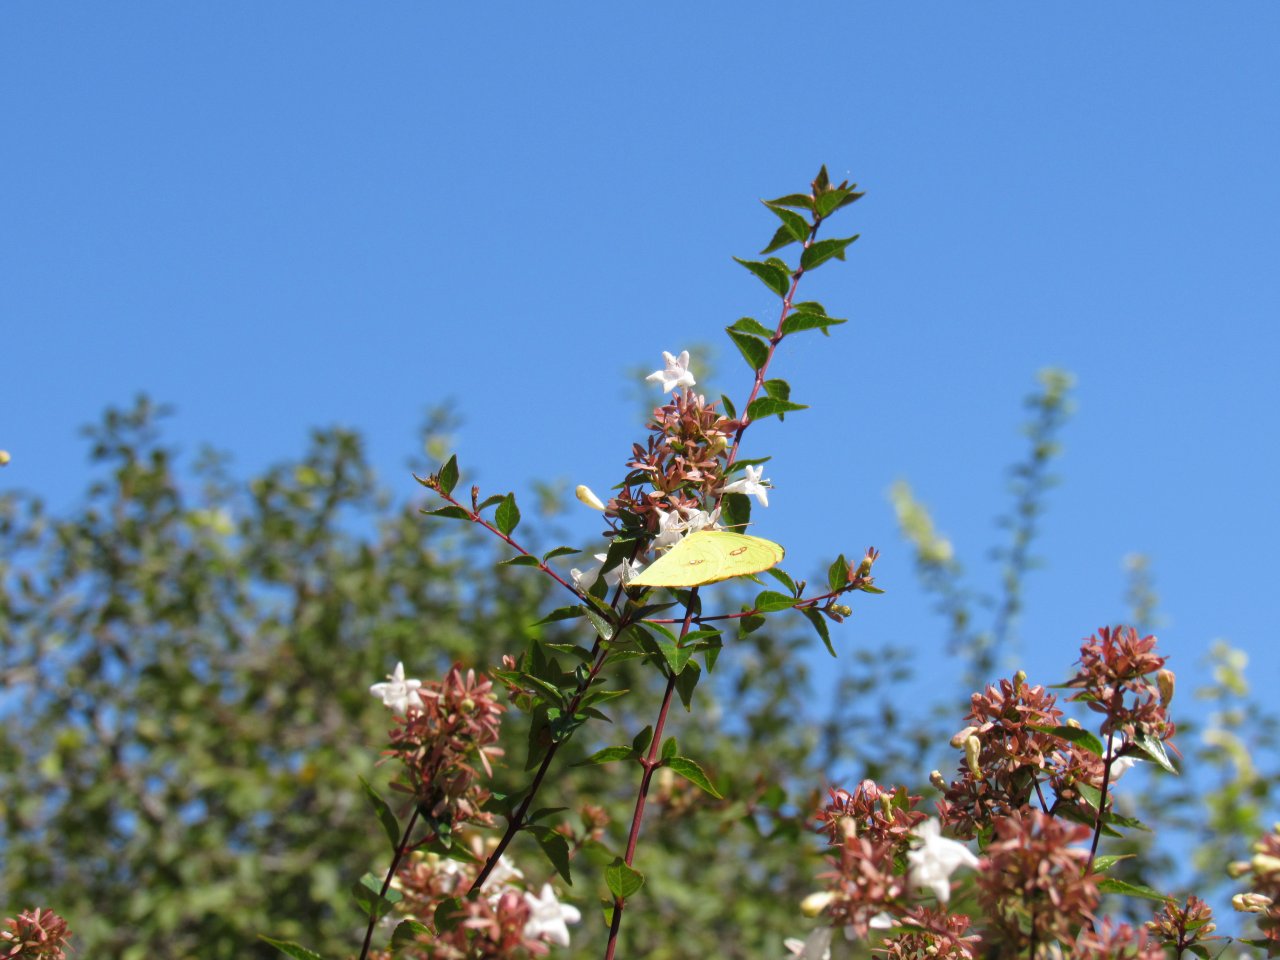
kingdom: Animalia
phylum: Arthropoda
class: Insecta
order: Lepidoptera
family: Pieridae
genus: Phoebis
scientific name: Phoebis sennae
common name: Cloudless Sulphur
